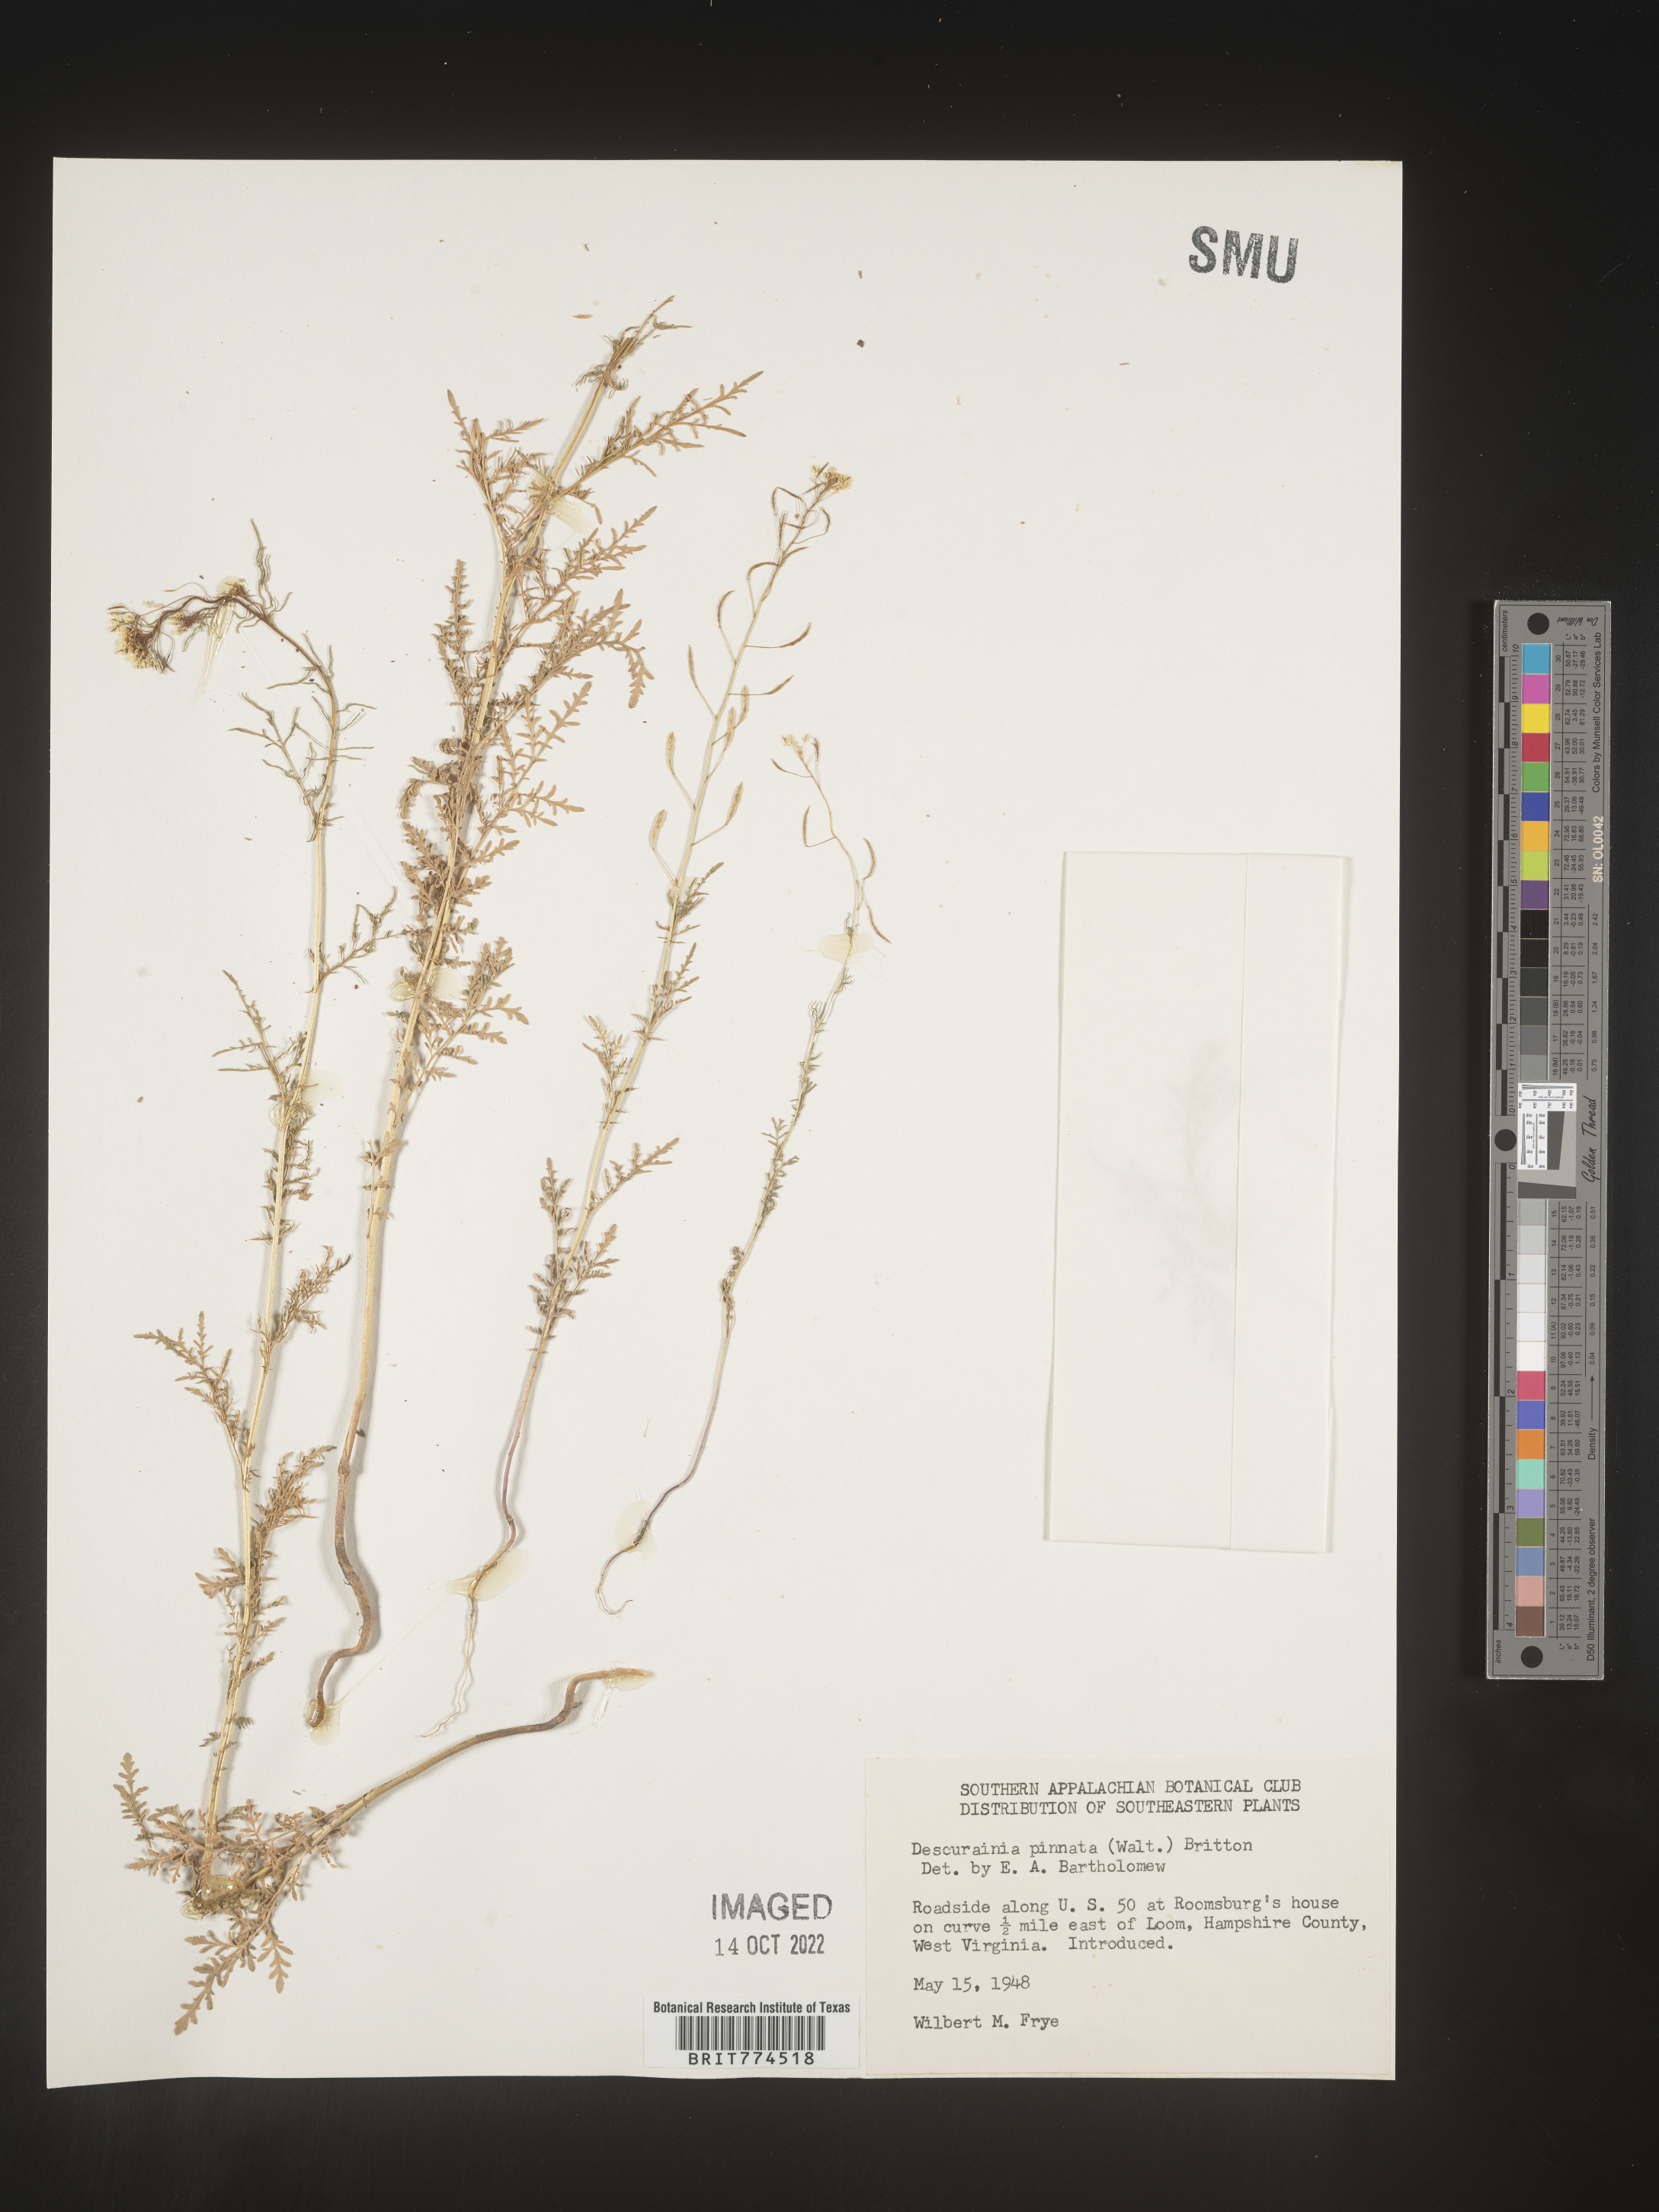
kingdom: Plantae
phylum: Tracheophyta
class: Magnoliopsida
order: Brassicales
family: Brassicaceae
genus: Descurainia
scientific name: Descurainia pinnata
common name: Western tansy mustard
